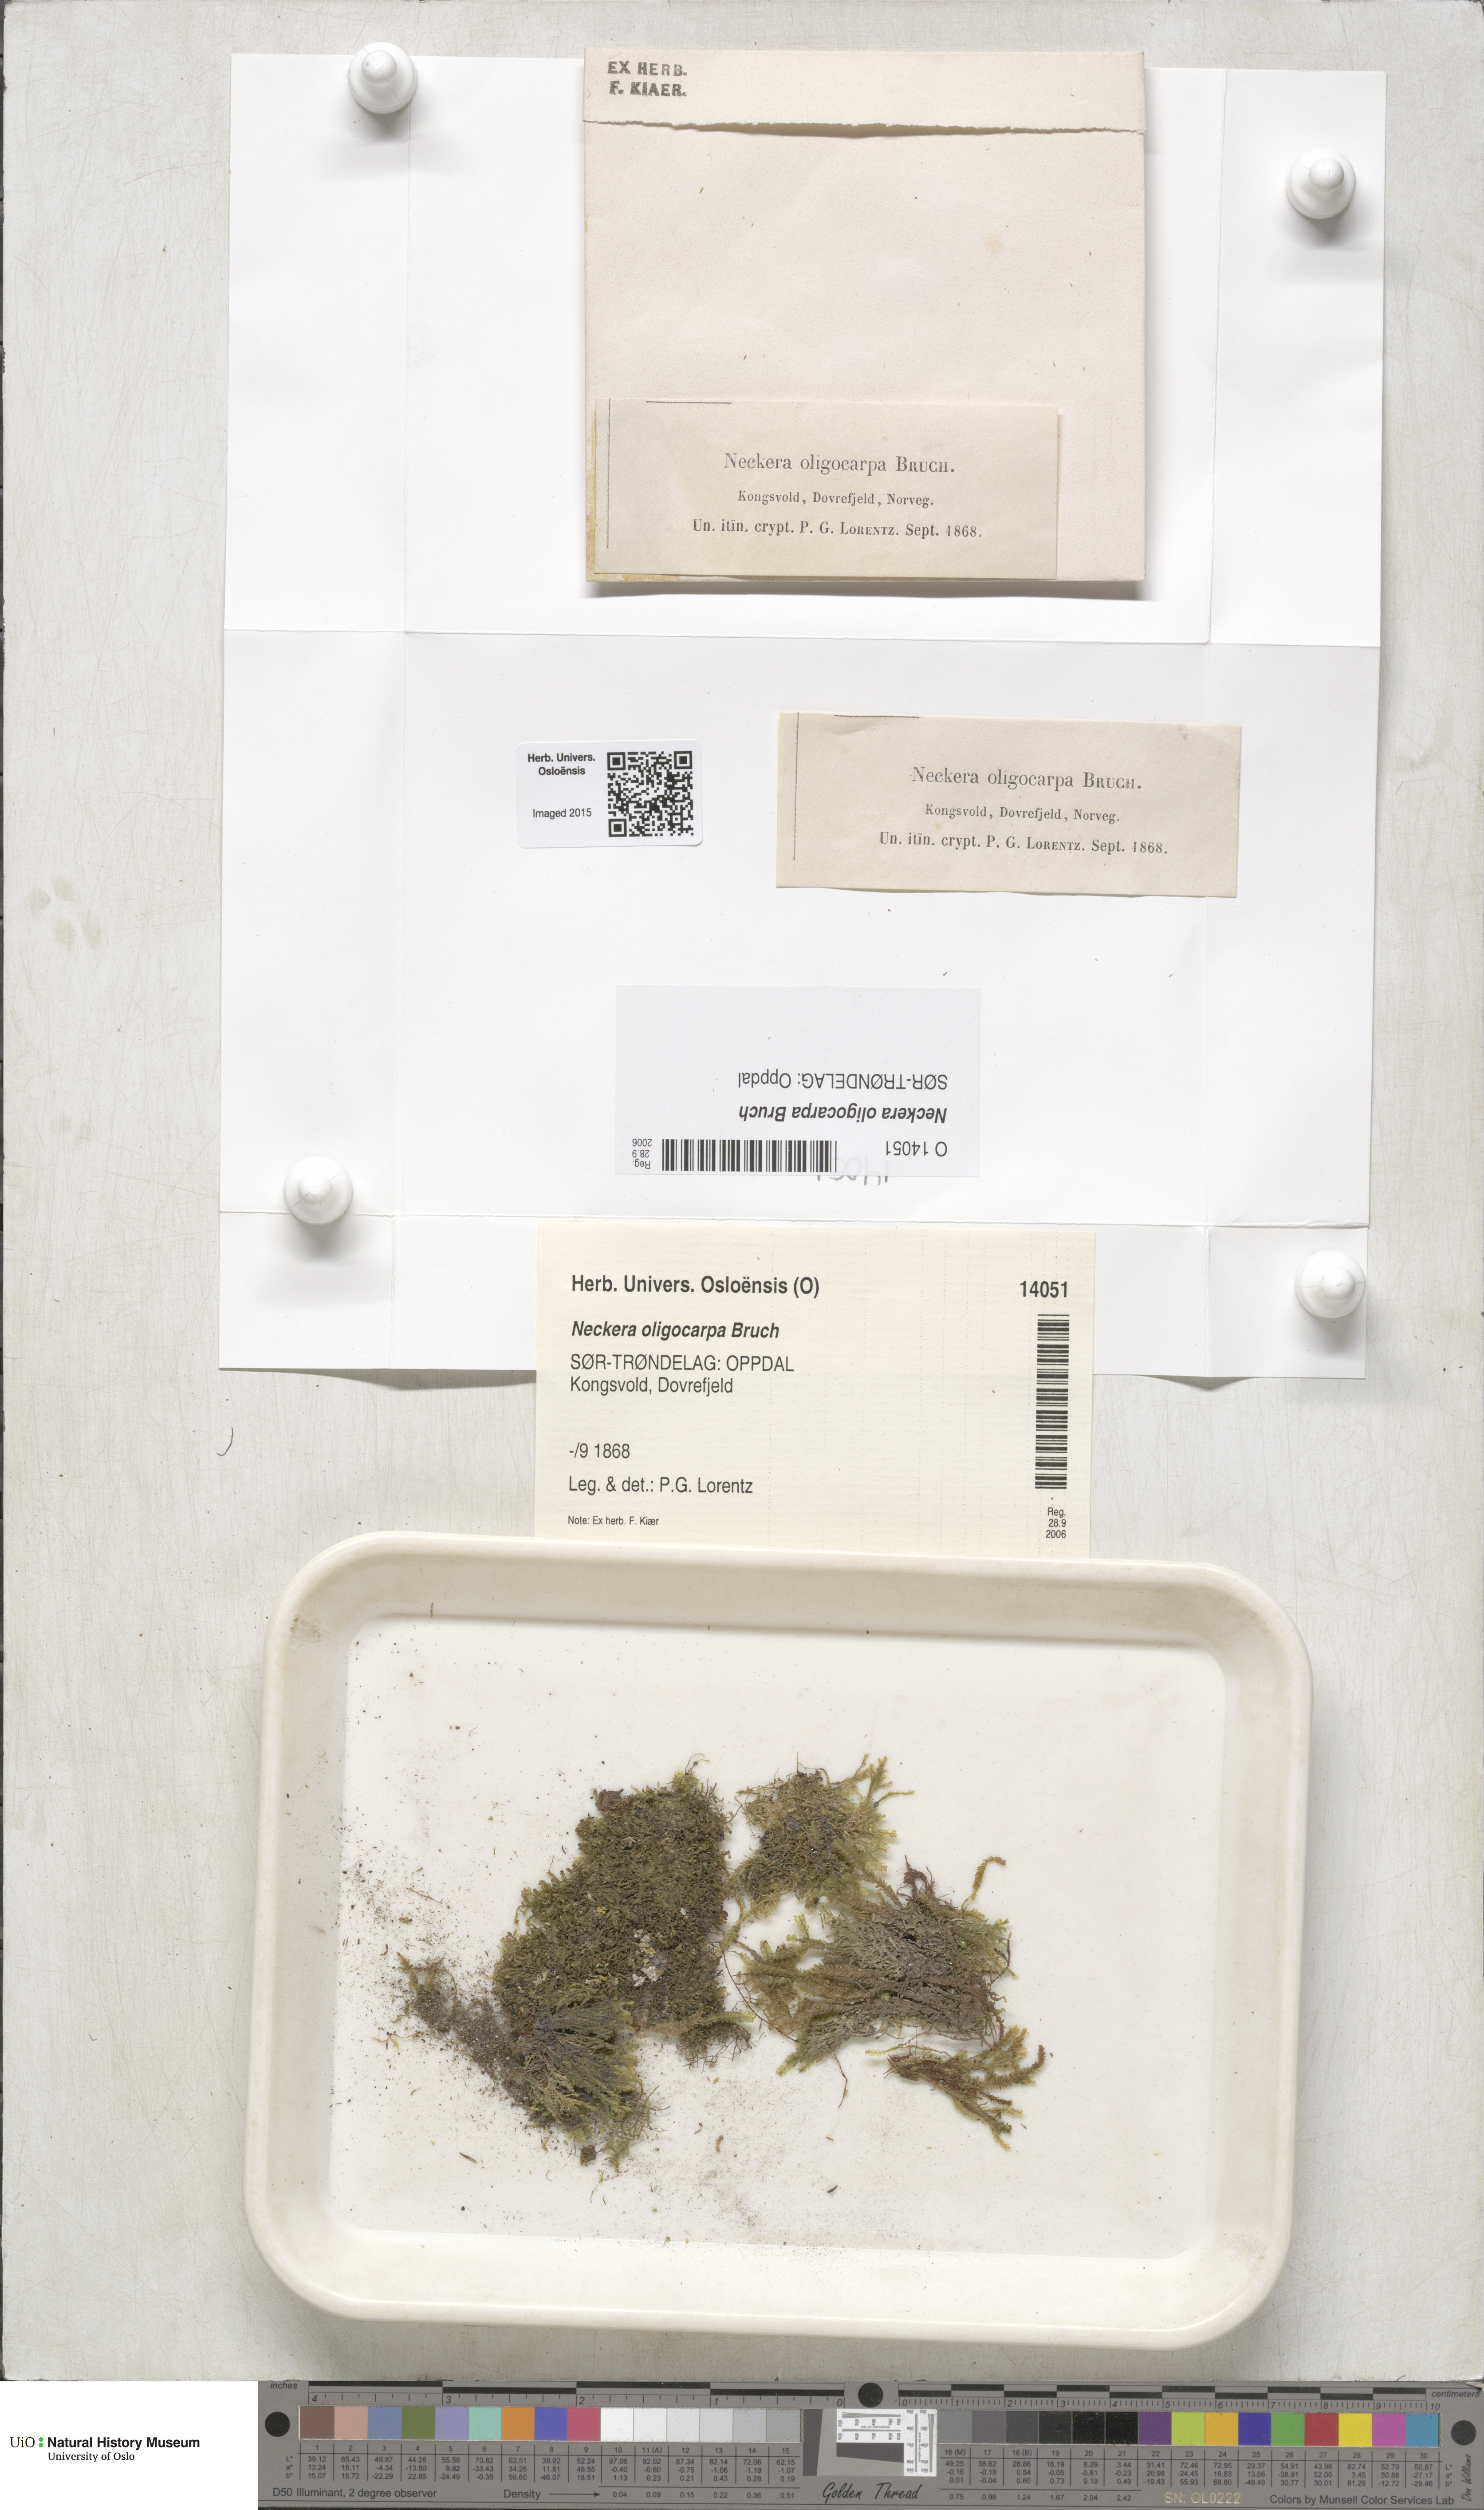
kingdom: Plantae
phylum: Bryophyta
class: Bryopsida
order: Hypnales
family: Neckeraceae
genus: Neckera
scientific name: Neckera oligocarpa
